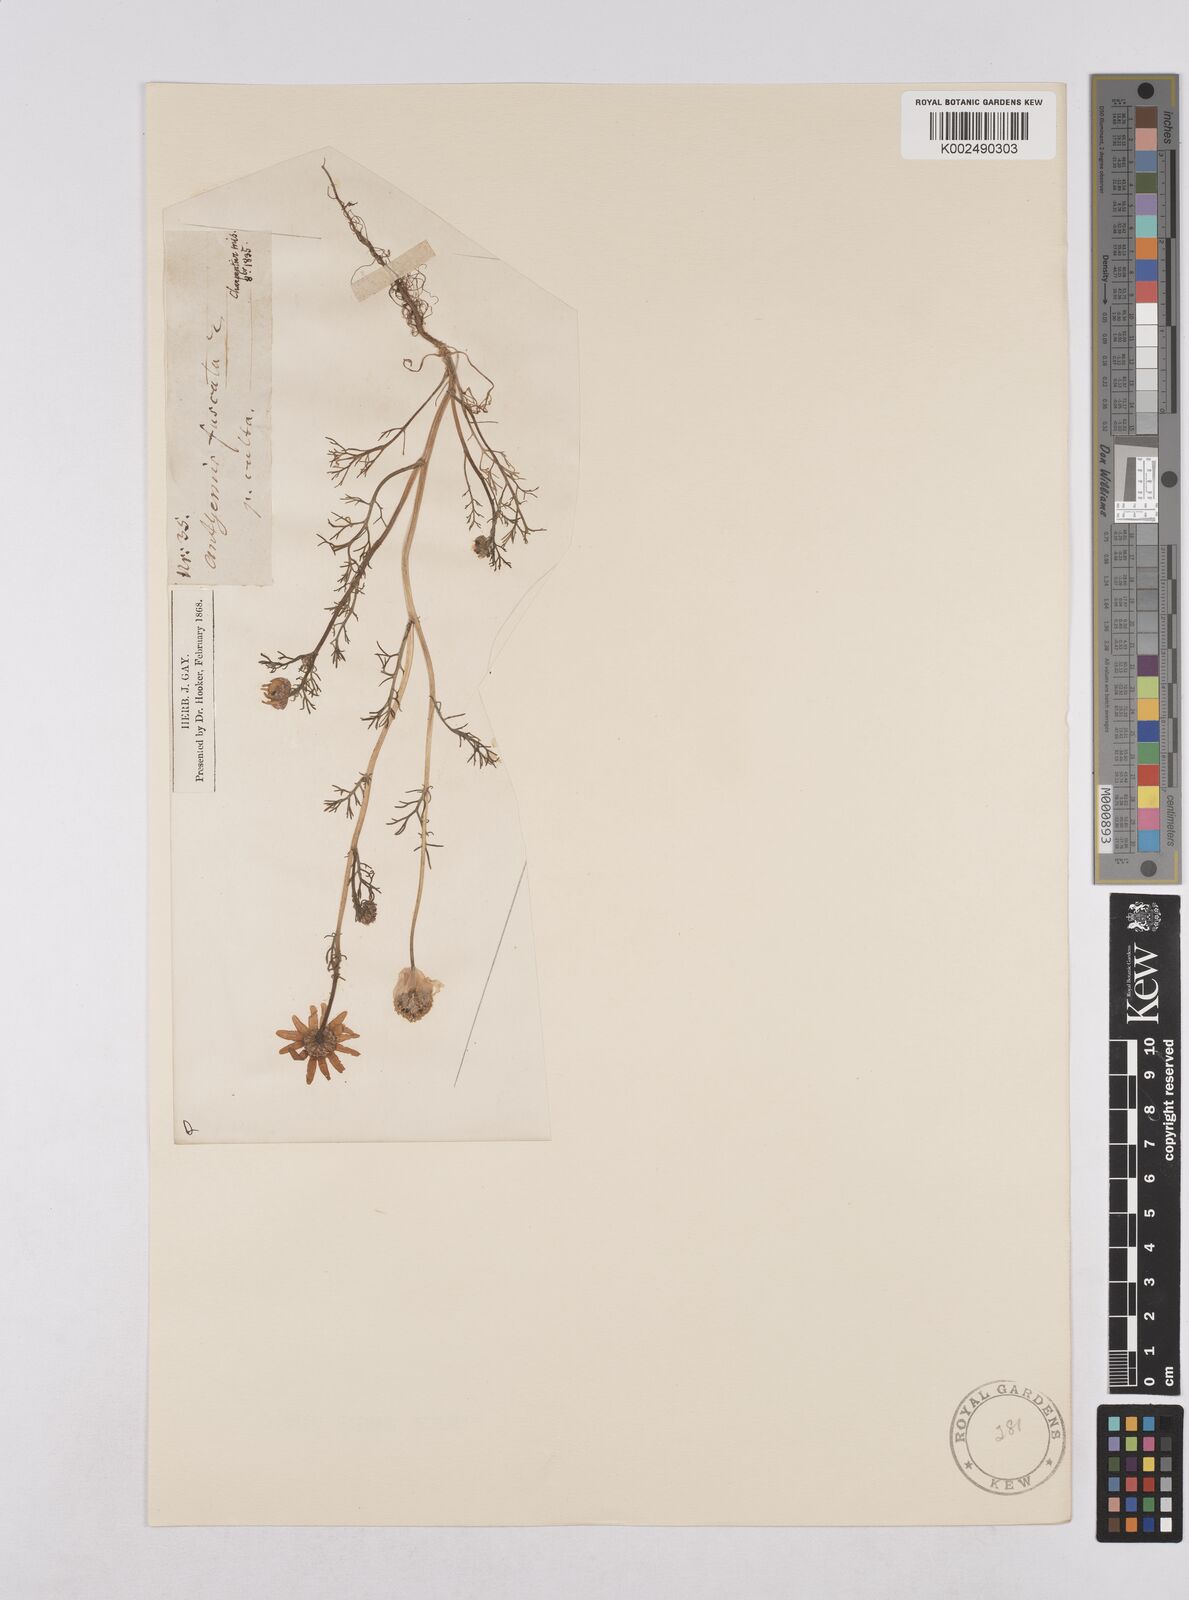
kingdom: Plantae
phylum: Tracheophyta
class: Magnoliopsida
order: Asterales
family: Asteraceae
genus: Chamaemelum
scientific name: Chamaemelum
